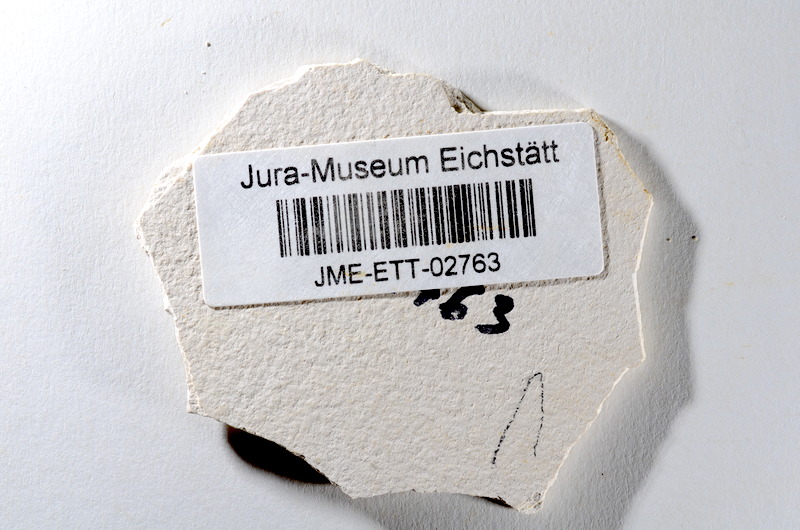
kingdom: Animalia
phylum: Chordata
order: Salmoniformes
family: Orthogonikleithridae
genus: Orthogonikleithrus
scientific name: Orthogonikleithrus hoelli
